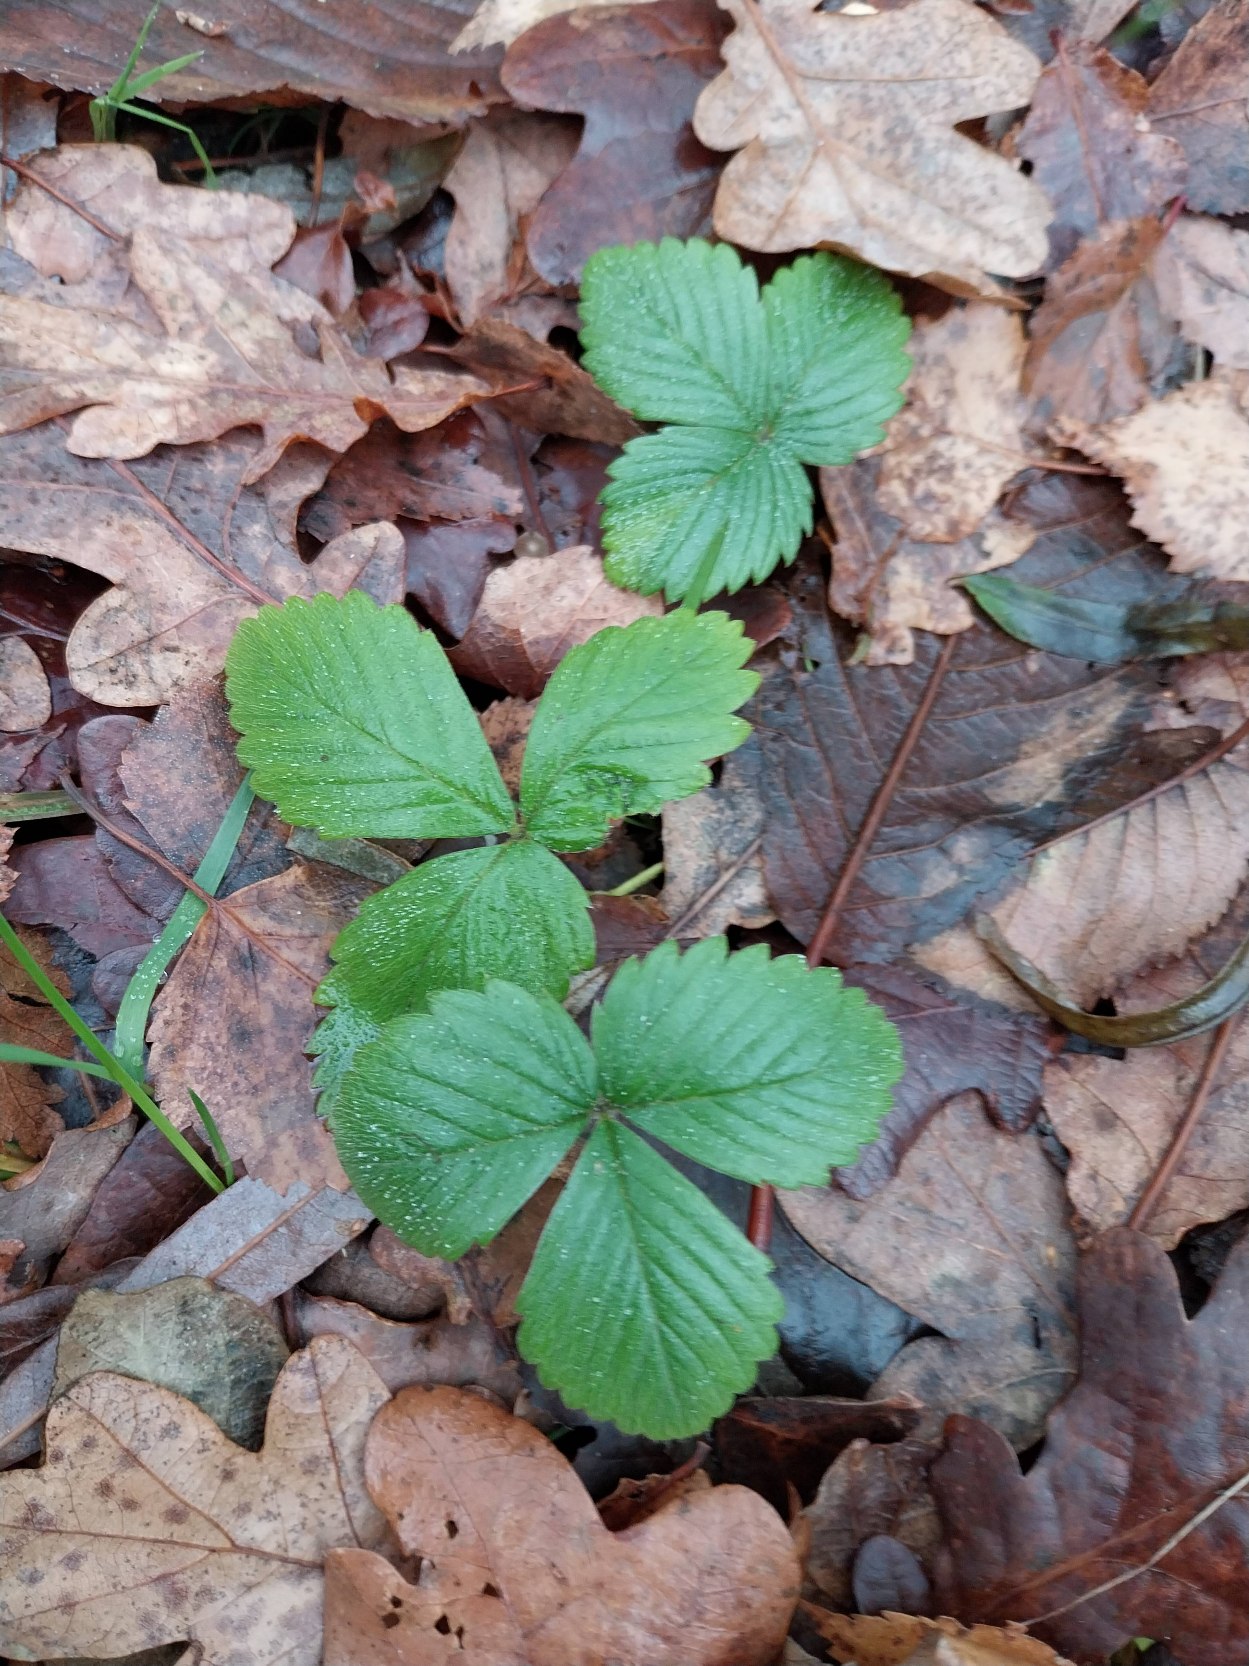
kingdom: Plantae
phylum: Tracheophyta
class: Magnoliopsida
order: Rosales
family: Rosaceae
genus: Fragaria
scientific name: Fragaria vesca
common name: Skov-jordbær
